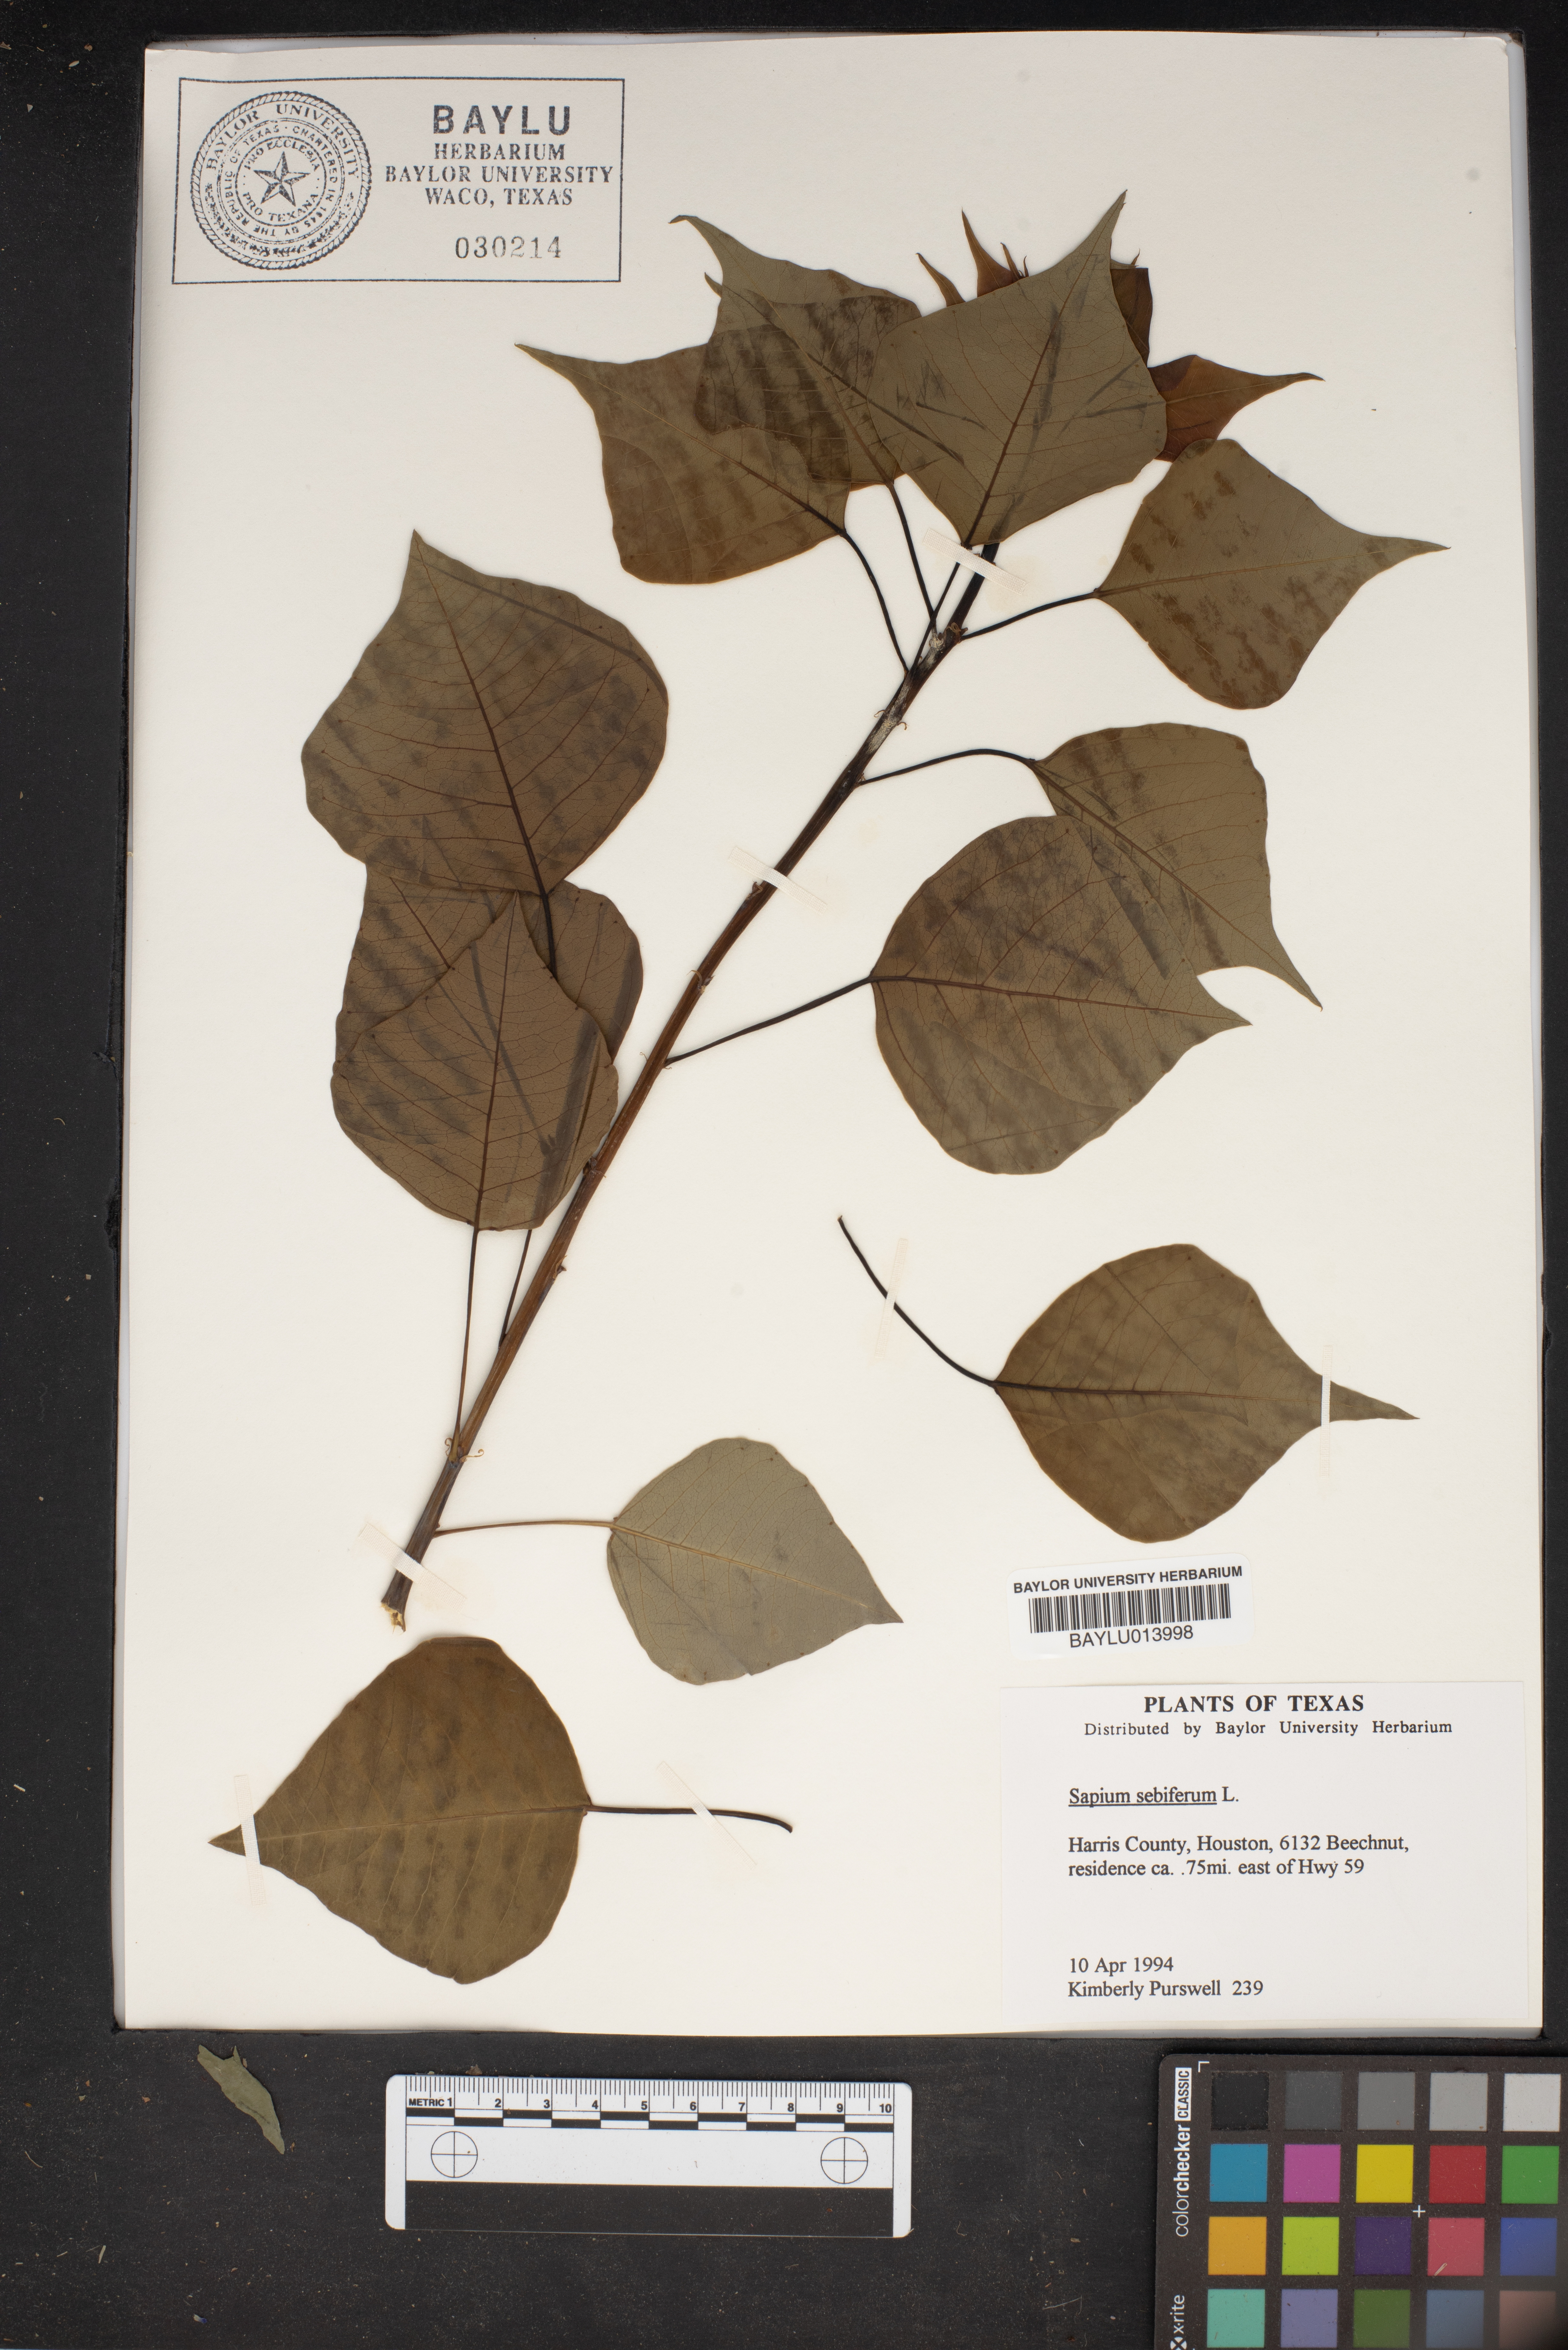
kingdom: Plantae
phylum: Tracheophyta
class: Magnoliopsida
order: Malpighiales
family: Euphorbiaceae
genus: Triadica
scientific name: Triadica sebifera
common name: Chinese tallow
